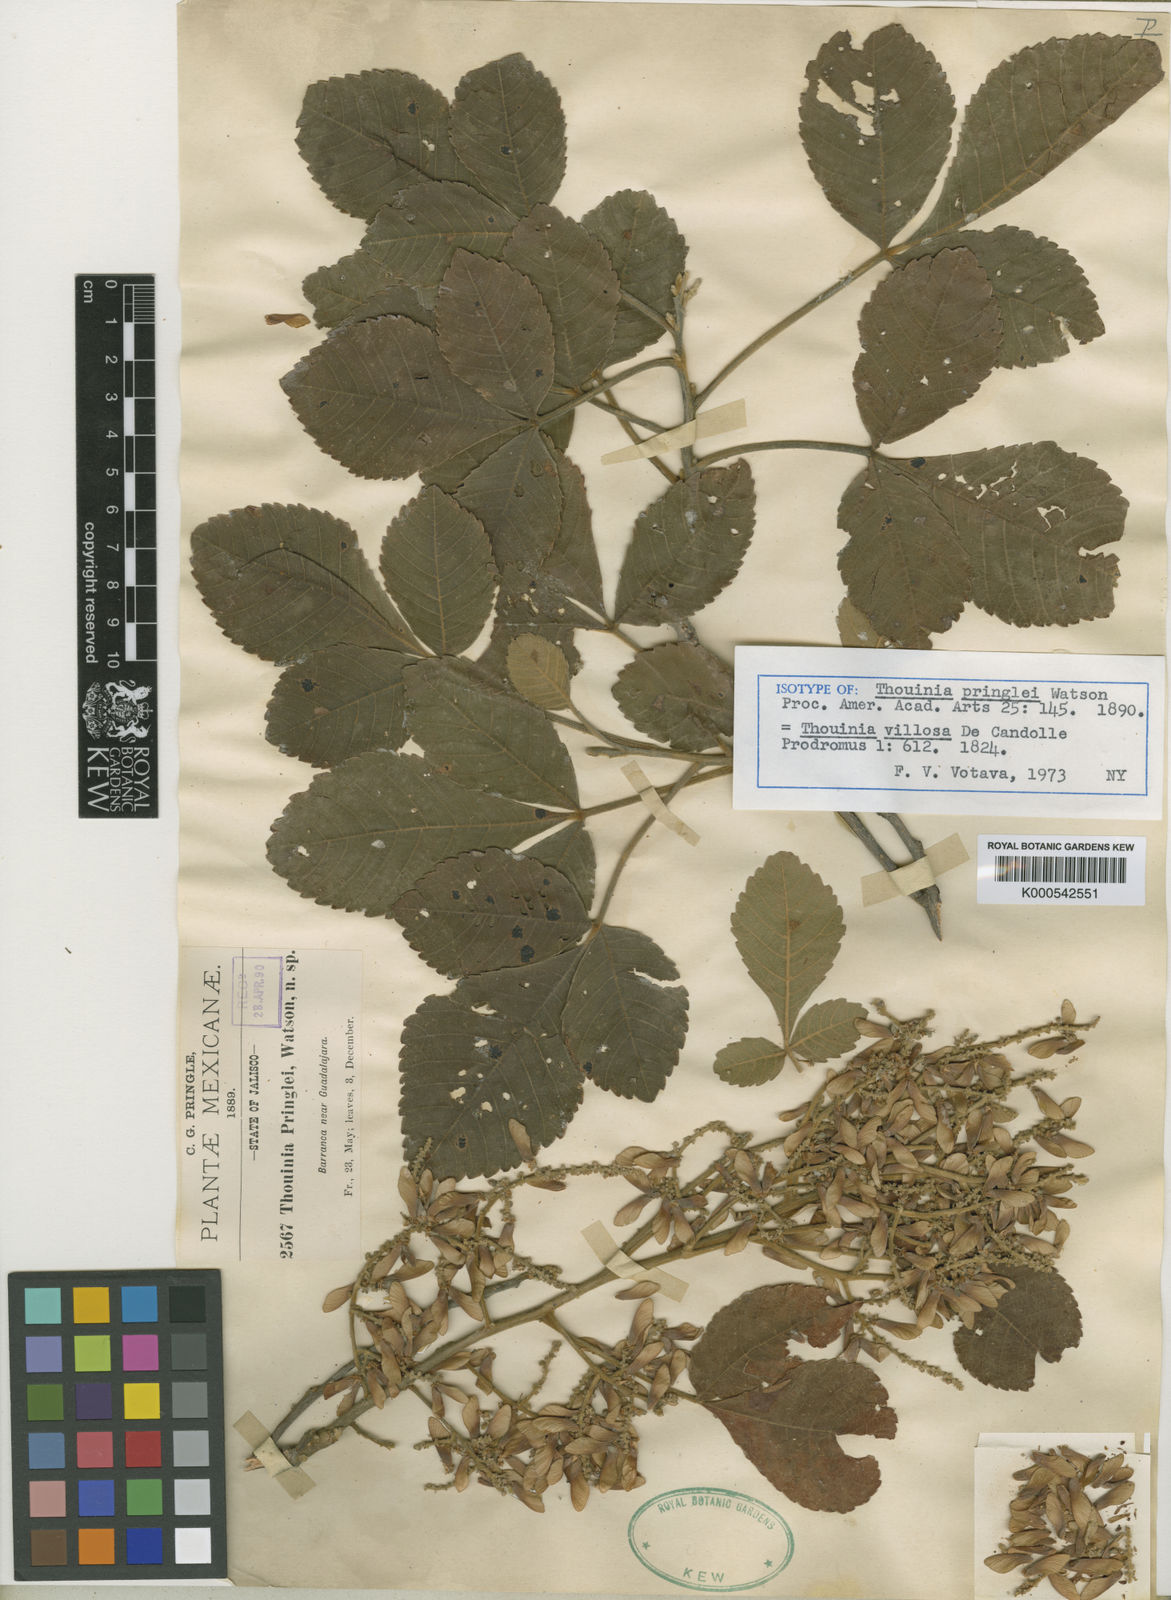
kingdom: Plantae
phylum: Tracheophyta
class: Magnoliopsida
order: Sapindales
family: Sapindaceae
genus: Thouinia
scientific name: Thouinia villosa
